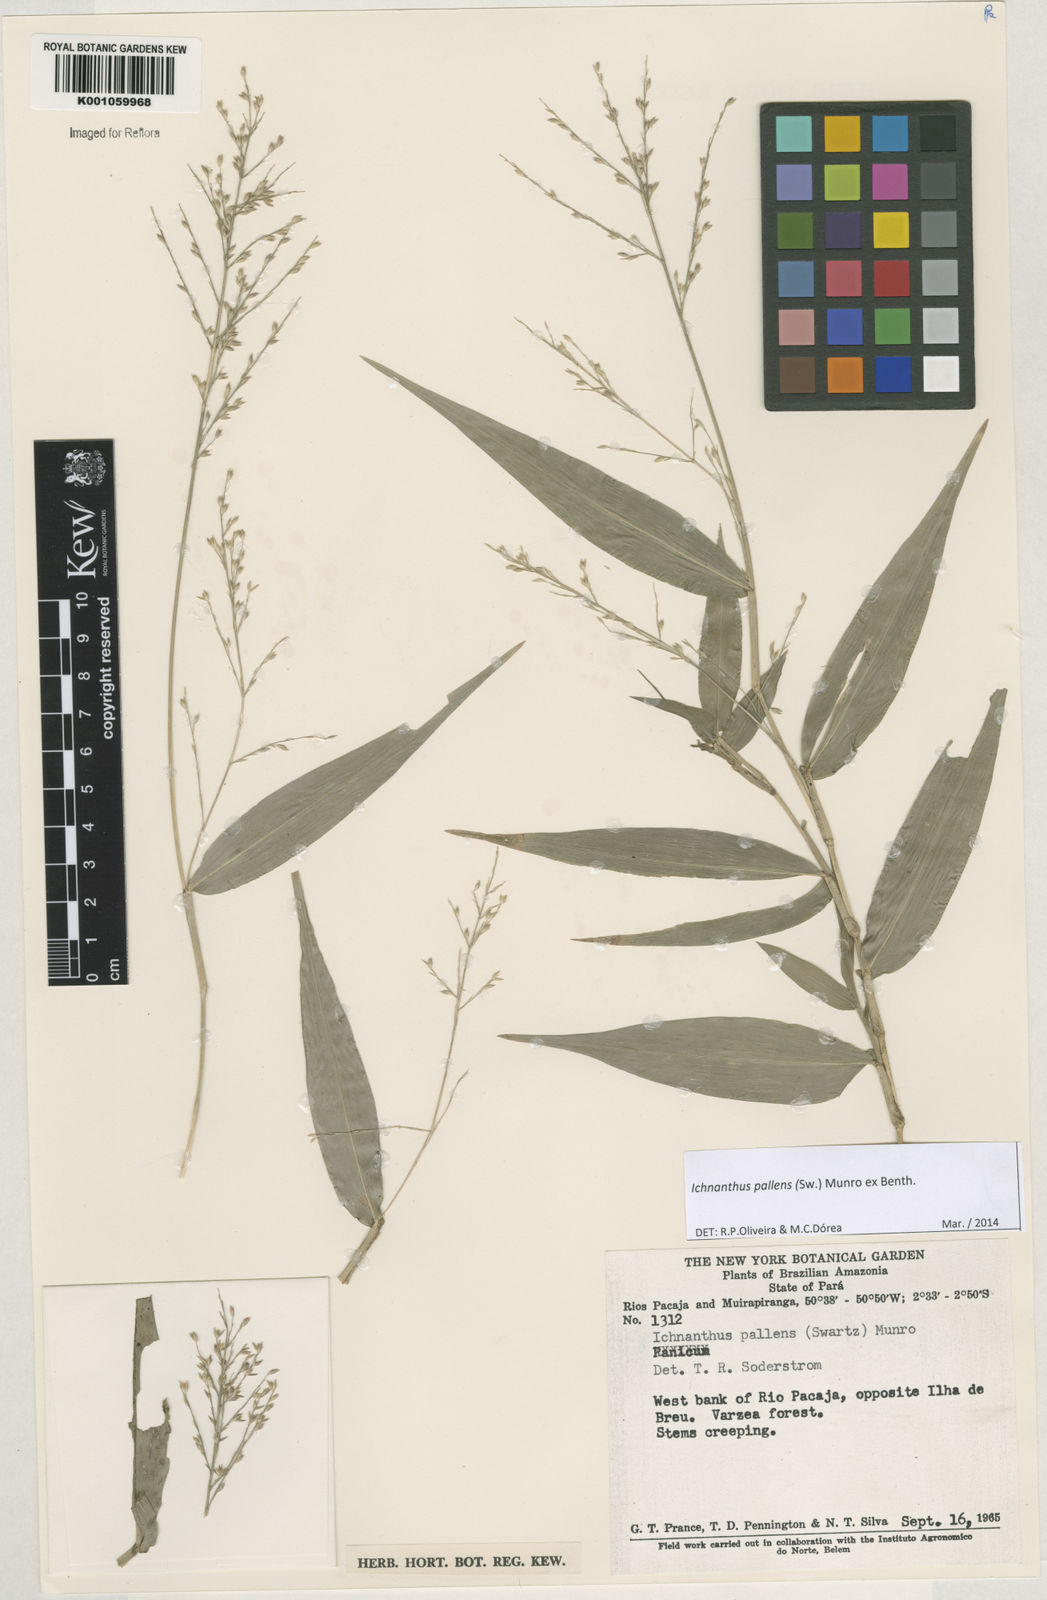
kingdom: Plantae
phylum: Tracheophyta
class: Liliopsida
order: Poales
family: Poaceae
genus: Ichnanthus
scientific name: Ichnanthus pallens
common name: Water grass
